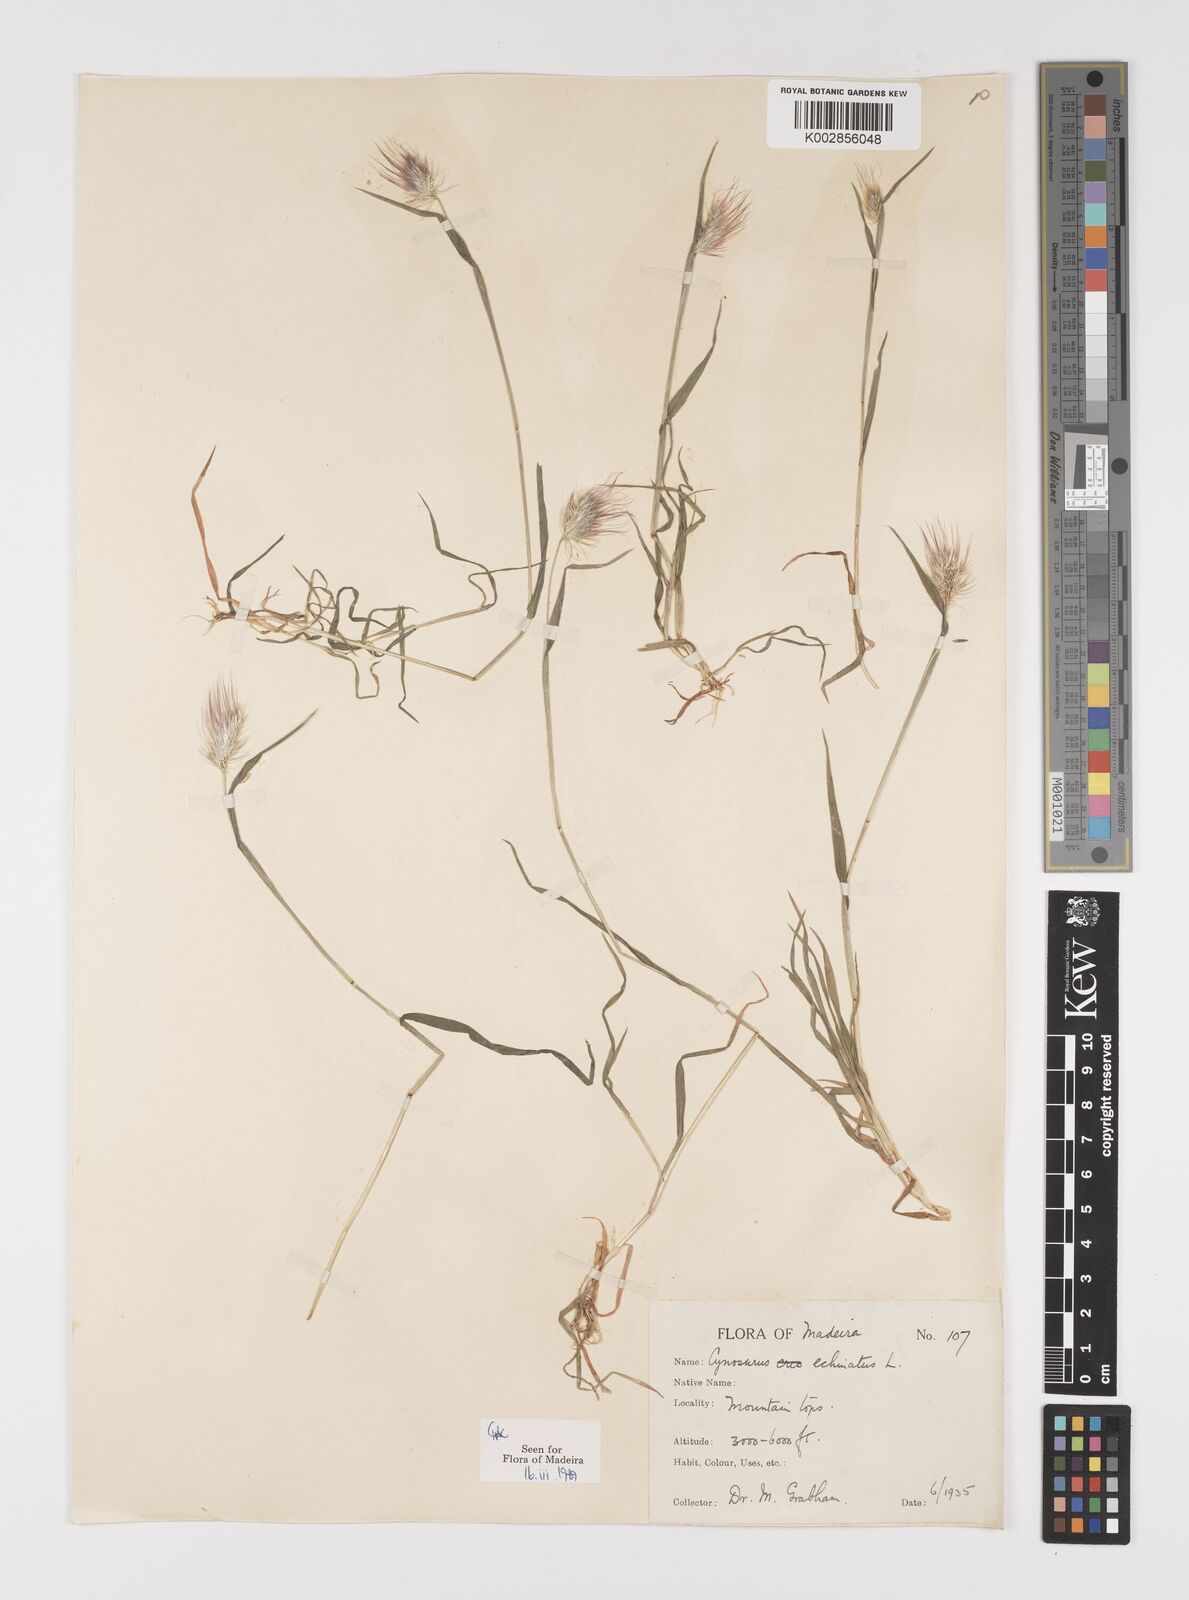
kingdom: Plantae
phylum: Tracheophyta
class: Liliopsida
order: Poales
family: Poaceae
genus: Cynosurus
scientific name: Cynosurus echinatus
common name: Rough dog's-tail
